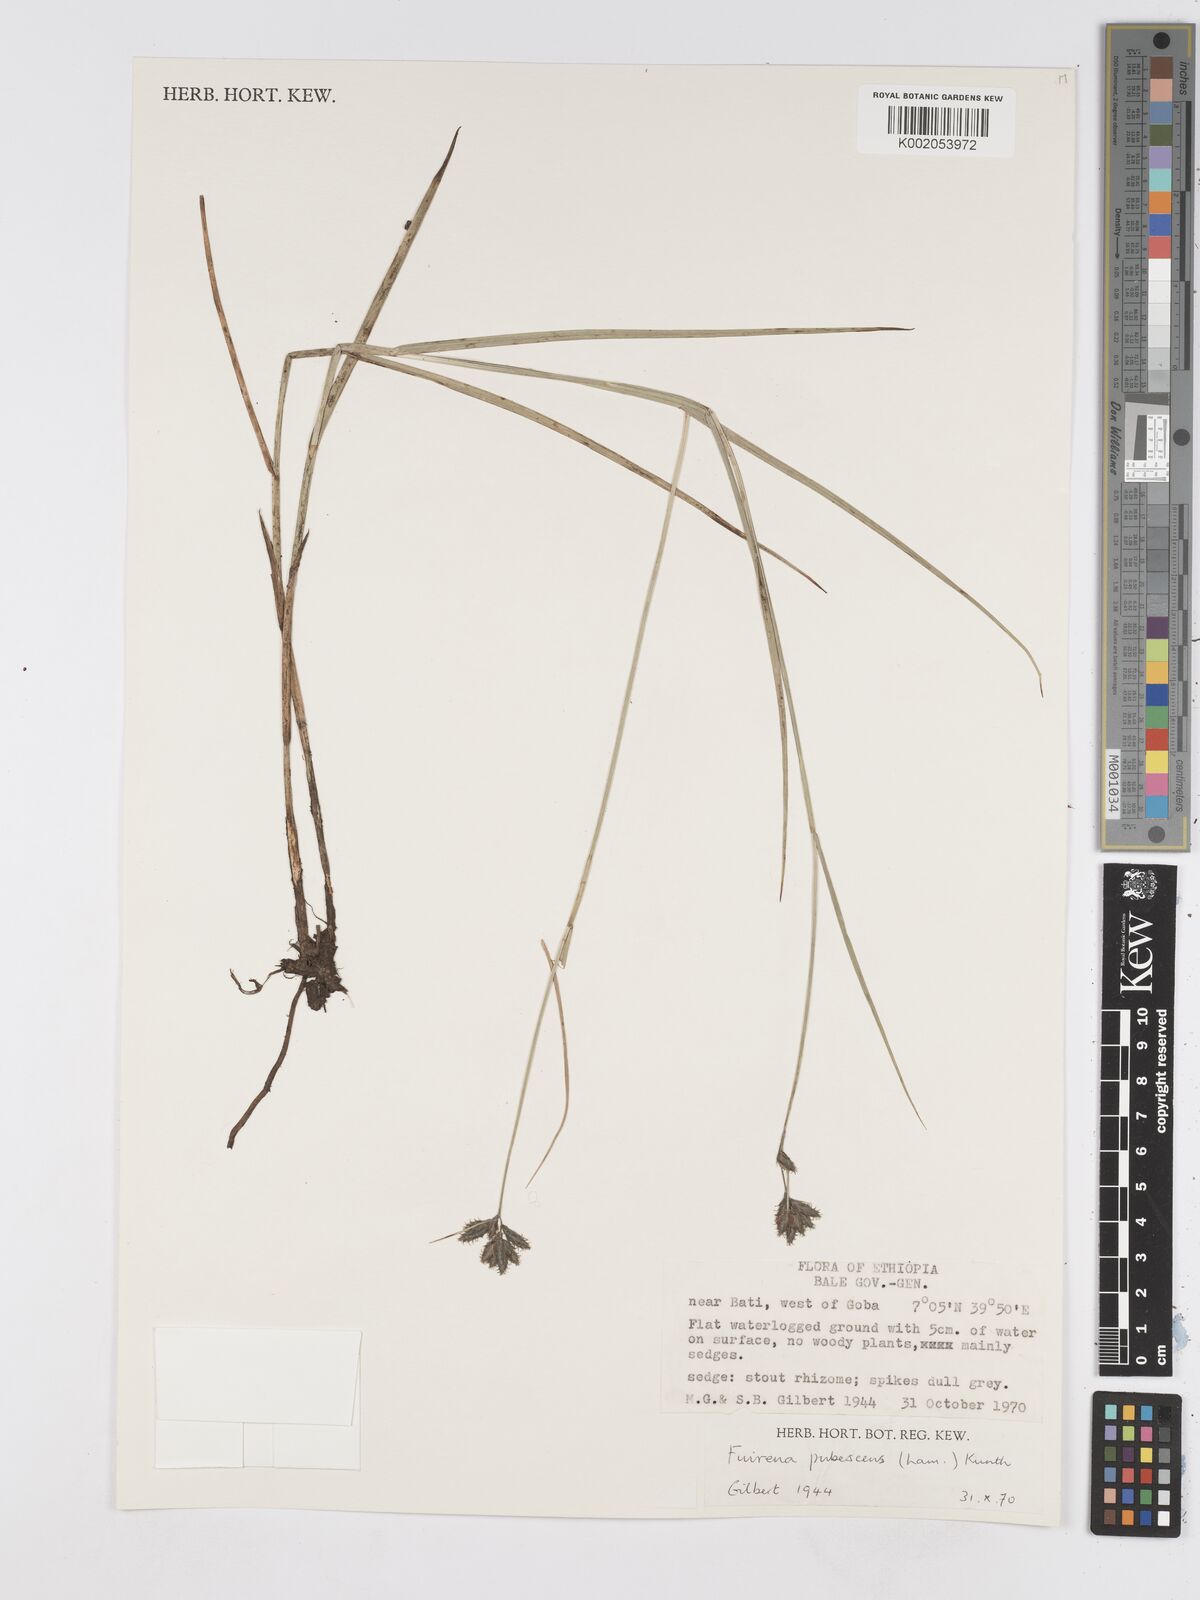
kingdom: Plantae
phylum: Tracheophyta
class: Liliopsida
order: Poales
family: Cyperaceae
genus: Fuirena
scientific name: Fuirena pachyrrhiza
